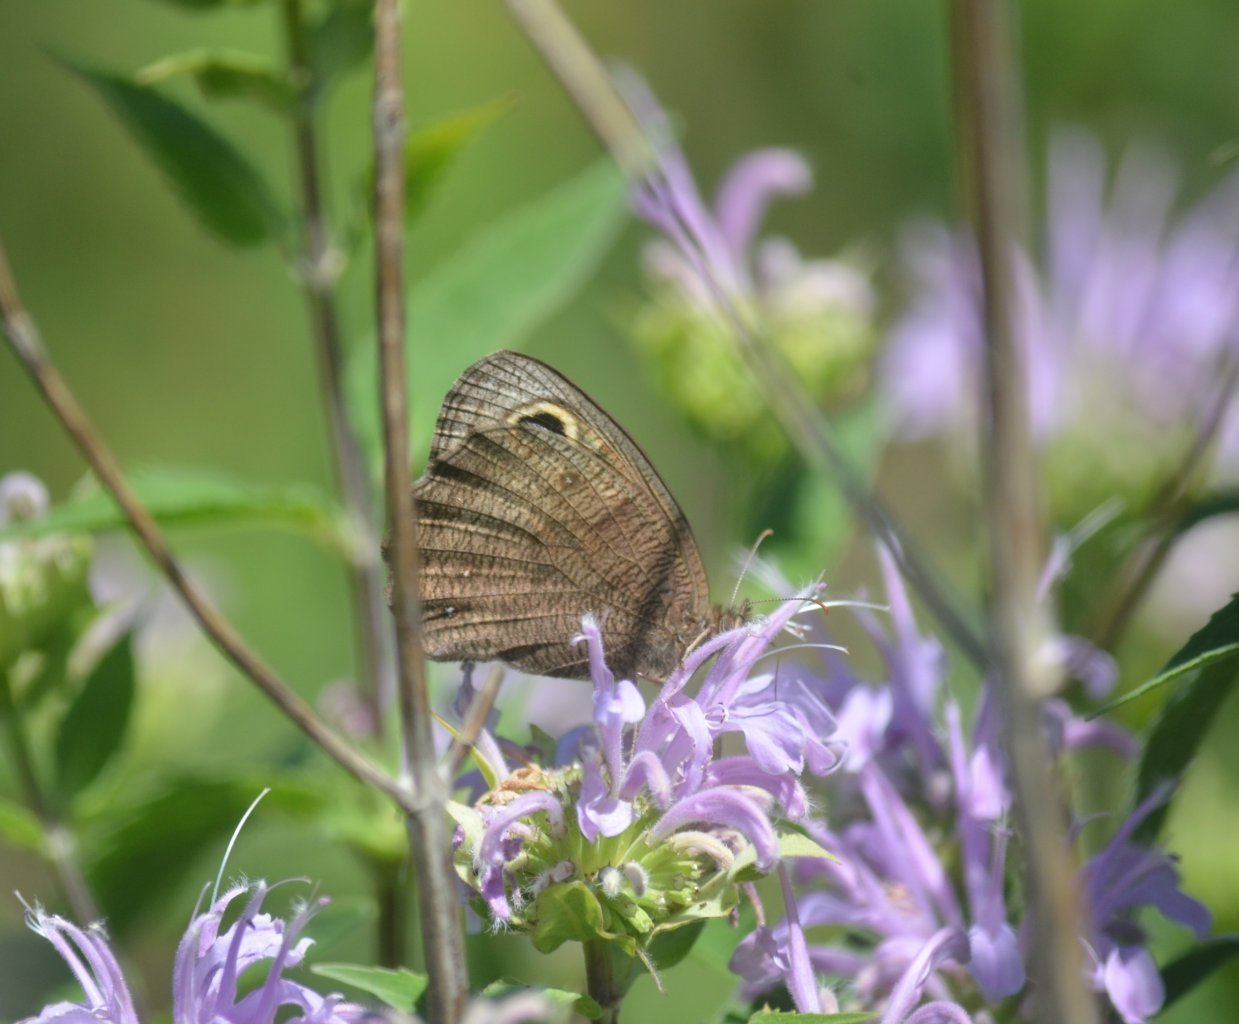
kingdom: Animalia
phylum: Arthropoda
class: Insecta
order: Lepidoptera
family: Nymphalidae
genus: Cercyonis
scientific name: Cercyonis pegala
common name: Common Wood-Nymph
